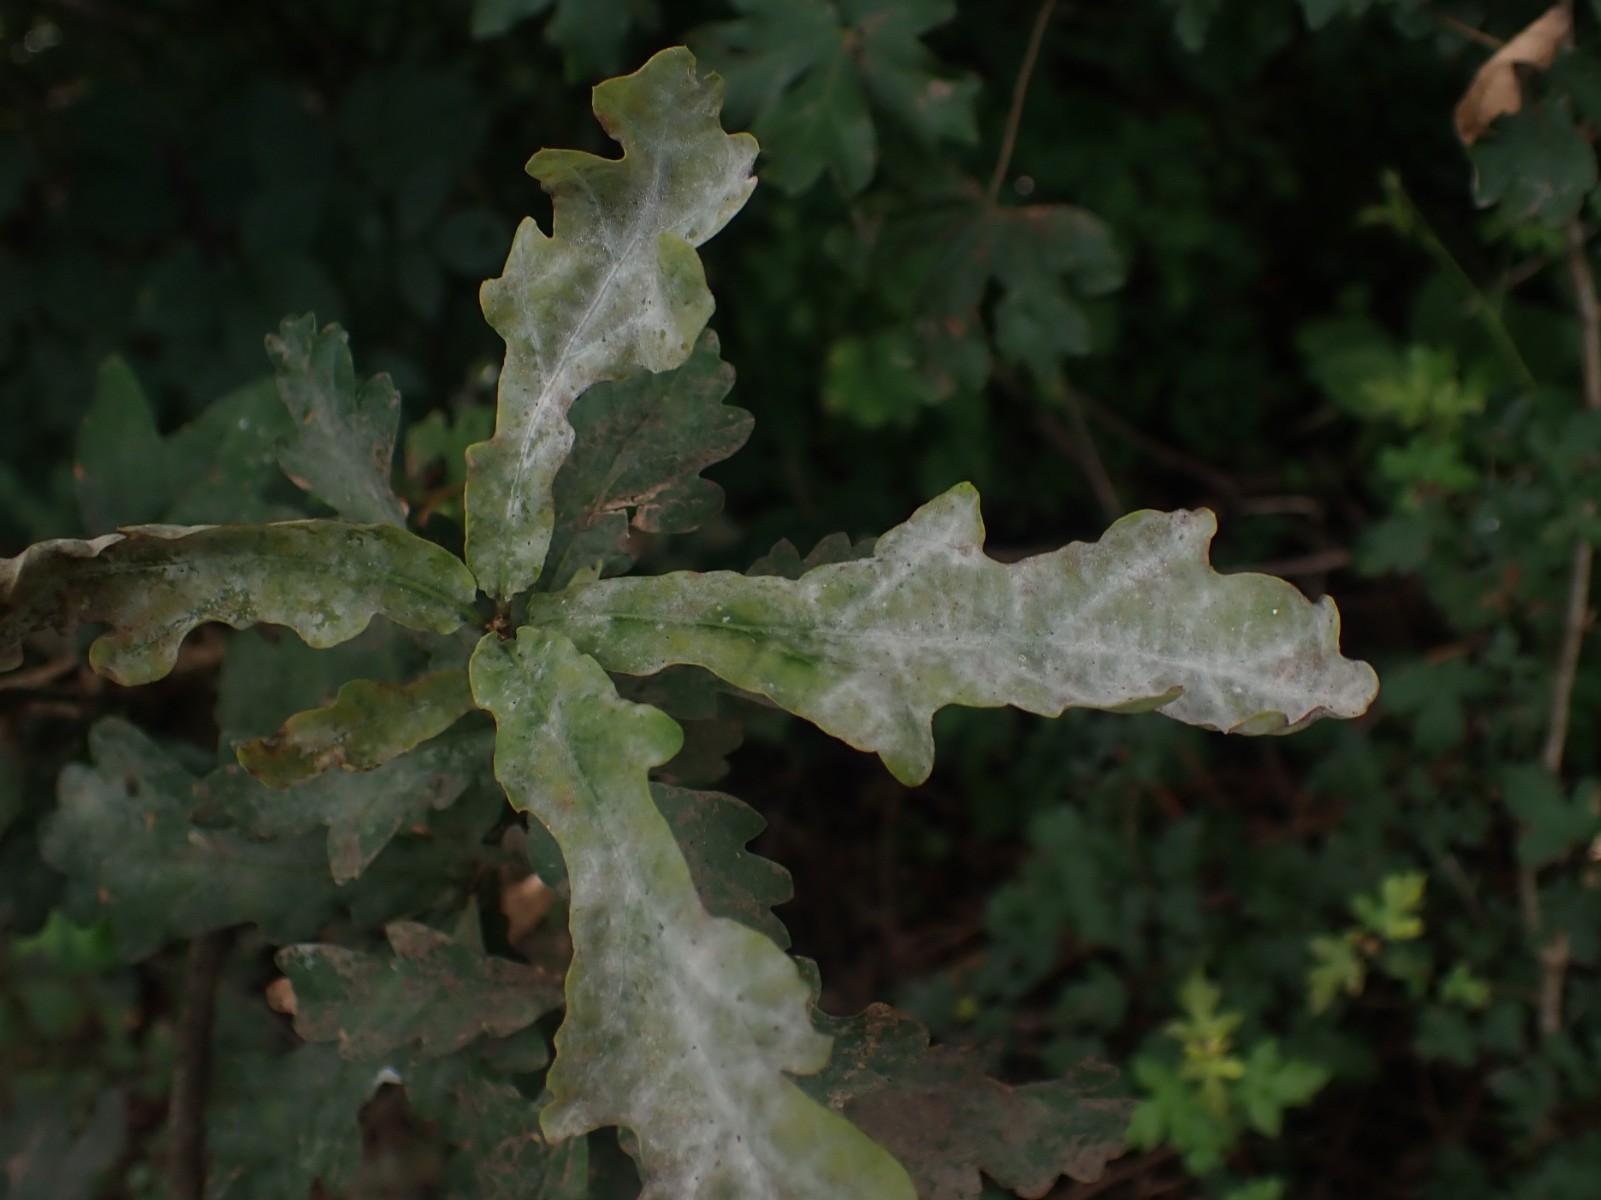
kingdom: Fungi
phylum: Ascomycota
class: Leotiomycetes
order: Helotiales
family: Erysiphaceae
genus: Erysiphe
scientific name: Erysiphe alphitoides
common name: ege-meldug
